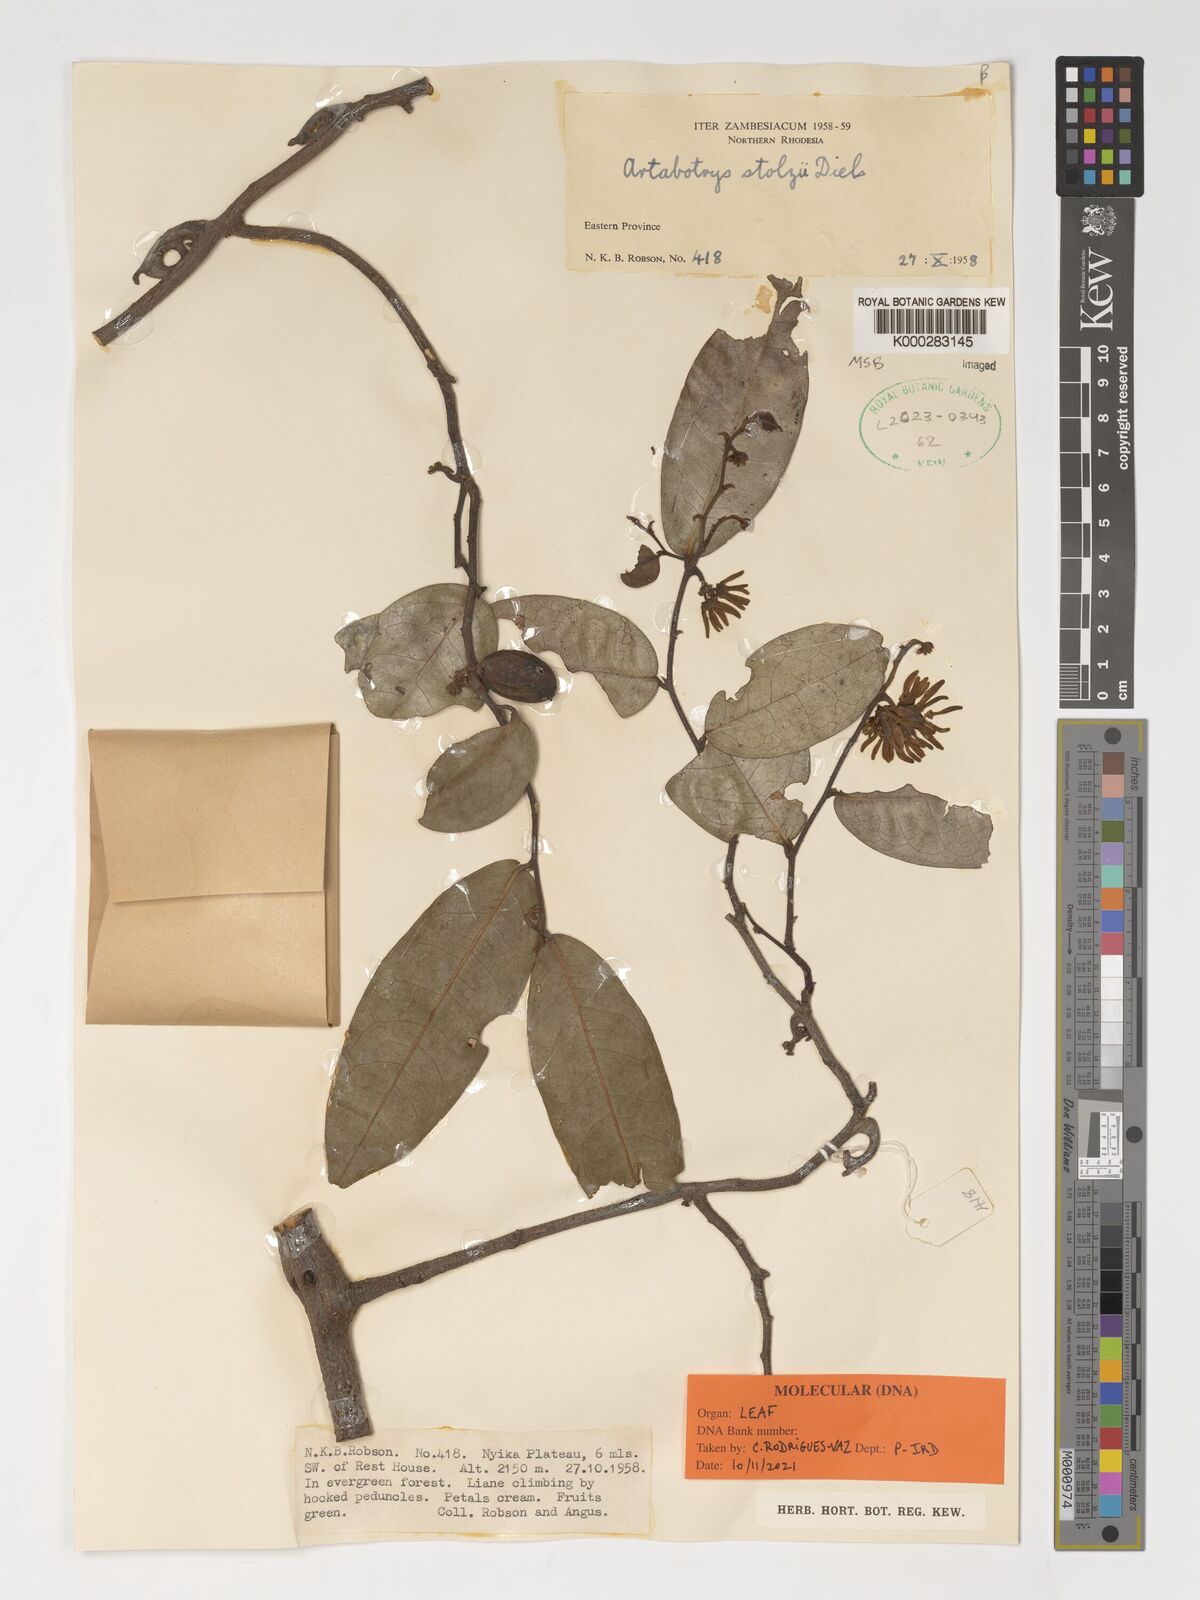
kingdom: Plantae
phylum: Tracheophyta
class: Magnoliopsida
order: Magnoliales
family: Annonaceae
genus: Artabotrys
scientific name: Artabotrys stolzii
